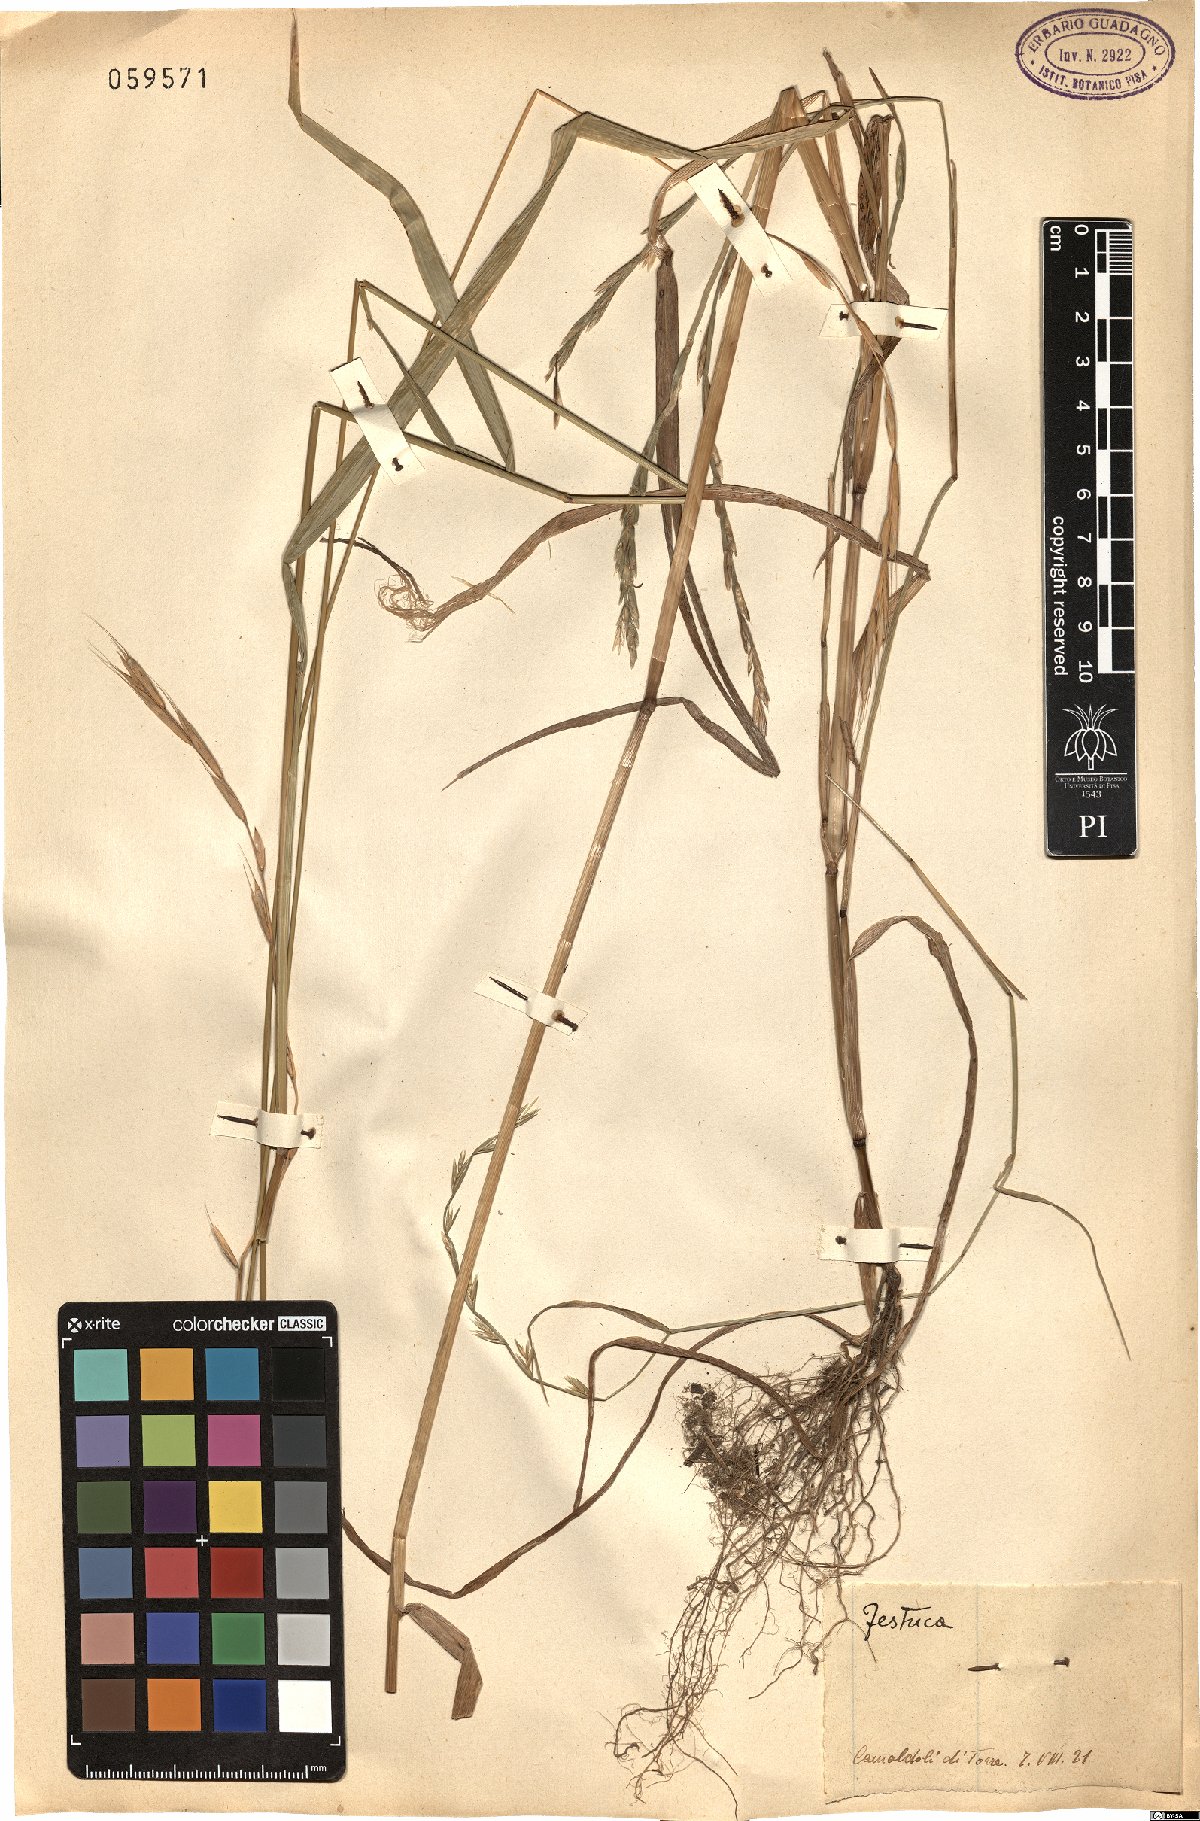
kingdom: Plantae
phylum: Tracheophyta
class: Liliopsida
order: Poales
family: Poaceae
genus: Festuca
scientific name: Festuca
